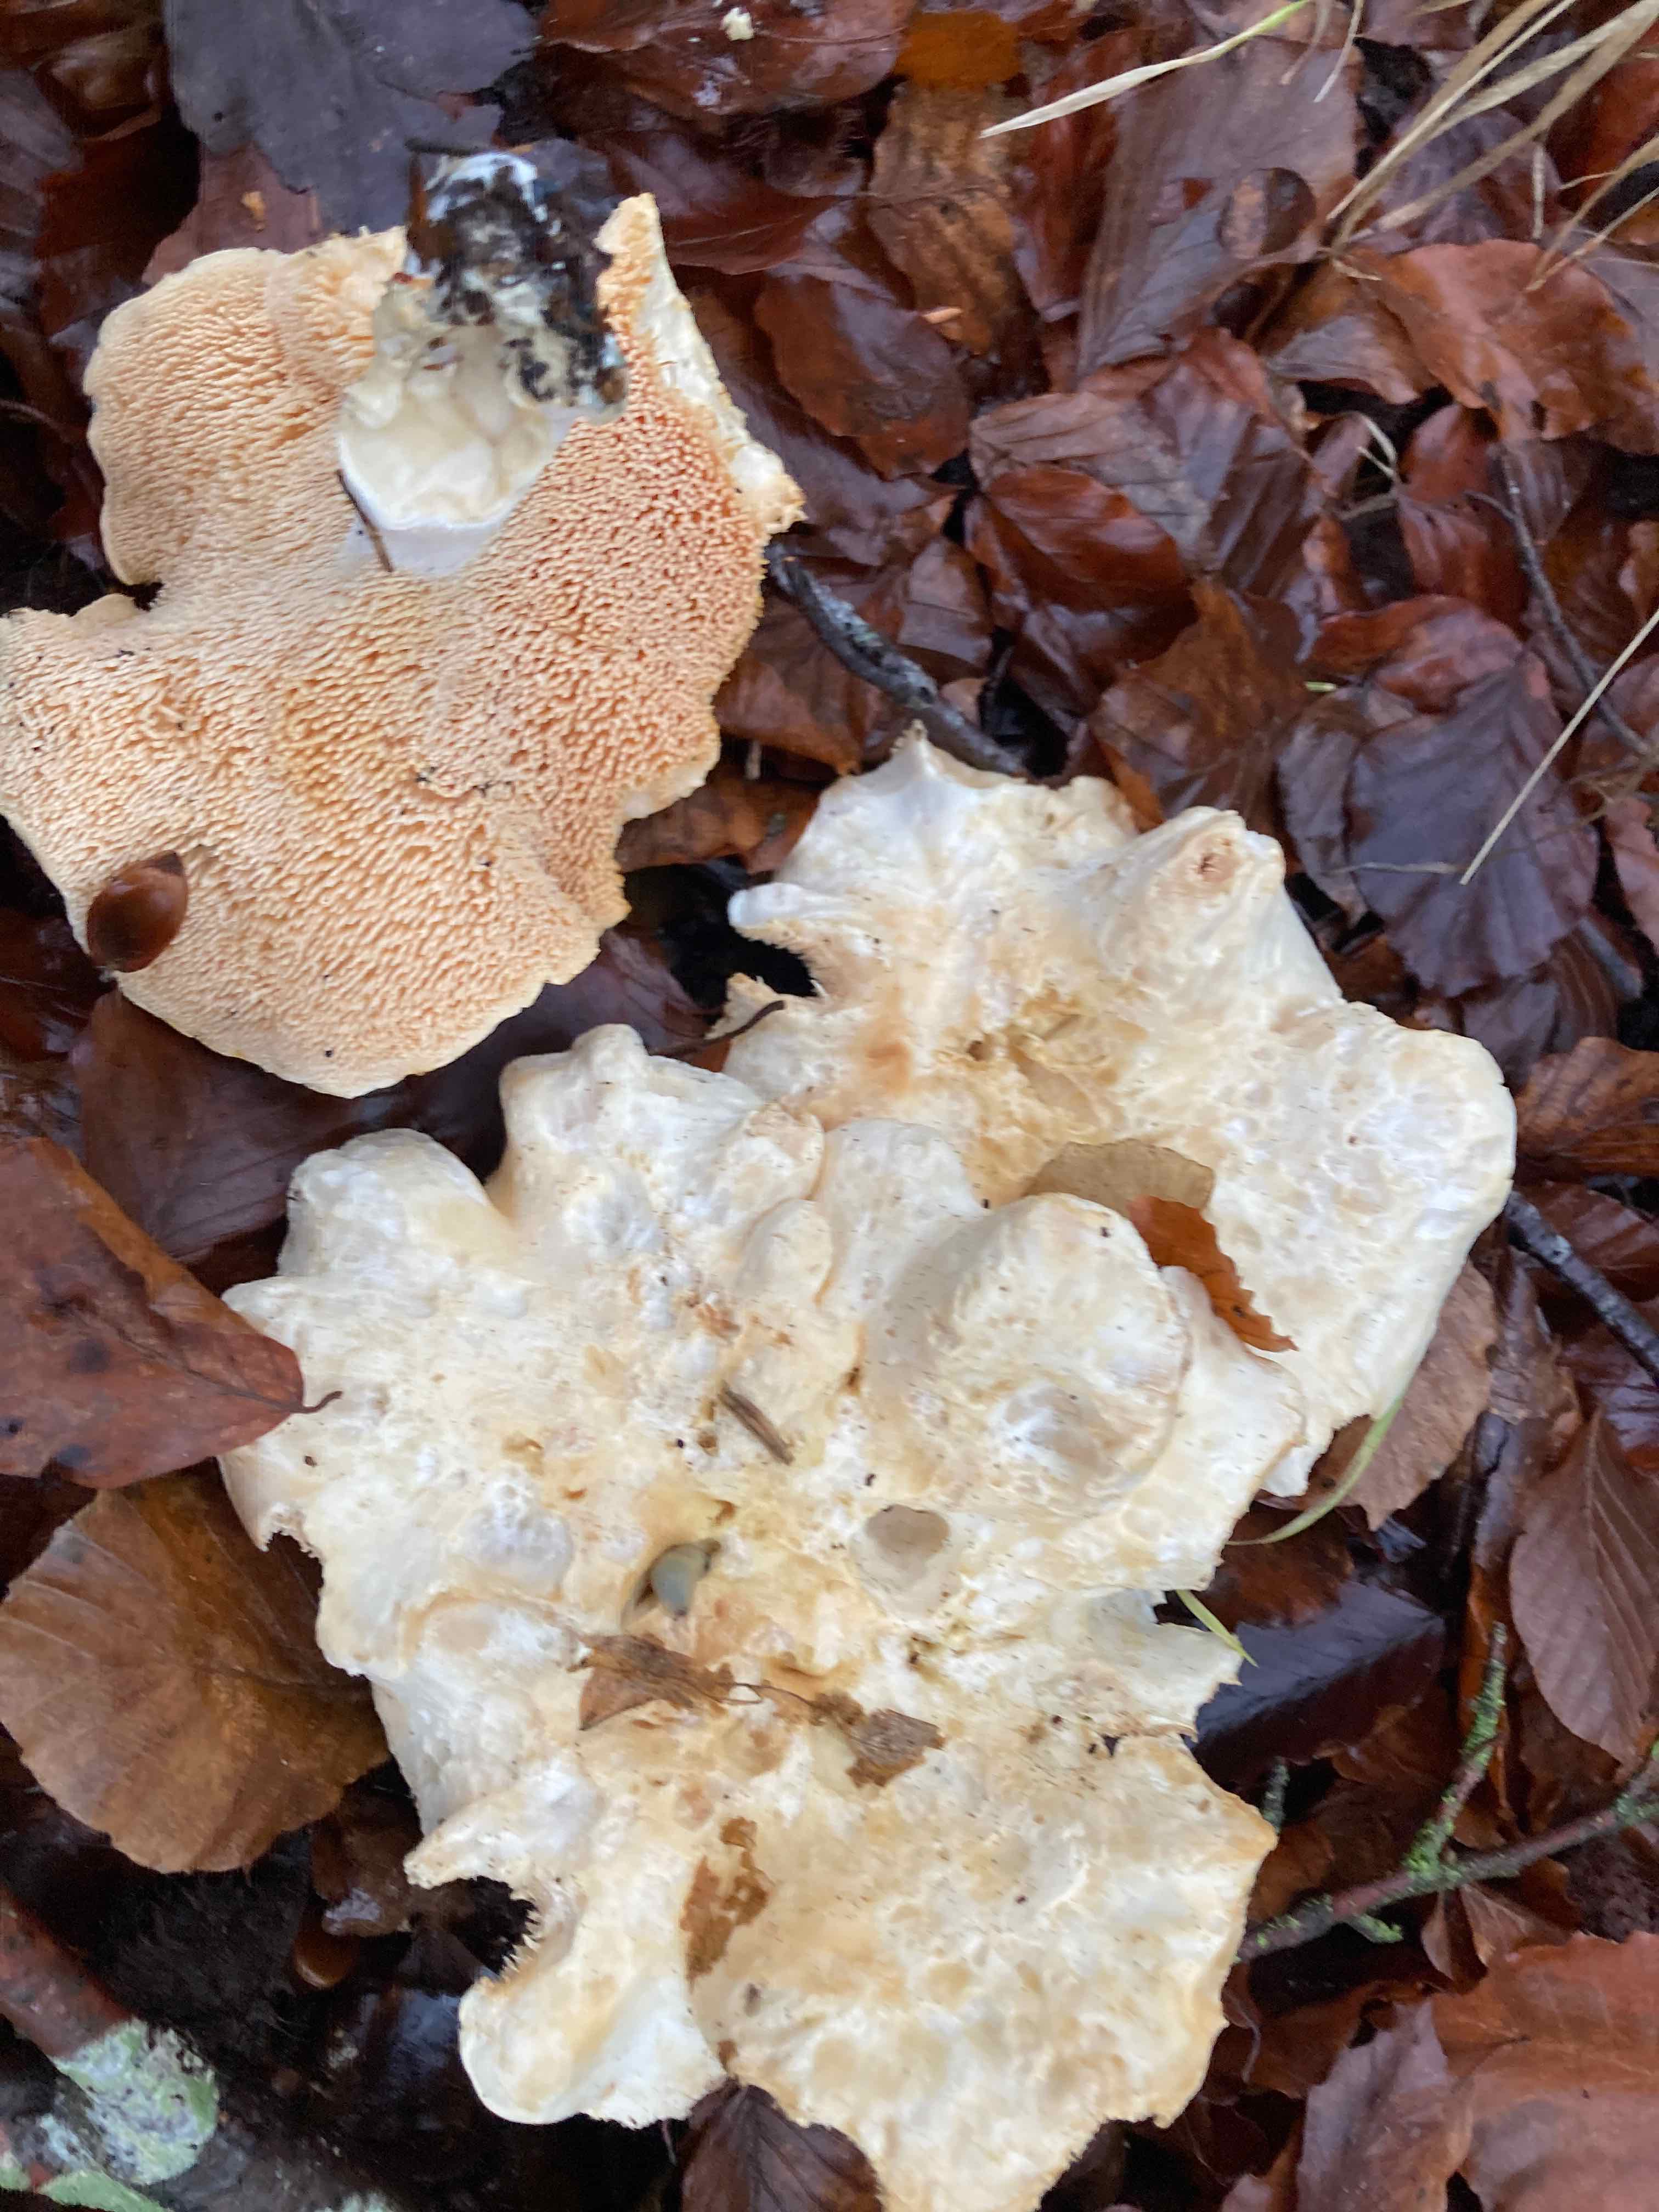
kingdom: Fungi
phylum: Basidiomycota
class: Agaricomycetes
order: Cantharellales
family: Hydnaceae
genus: Hydnum
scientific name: Hydnum repandum
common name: almindelig pigsvamp
